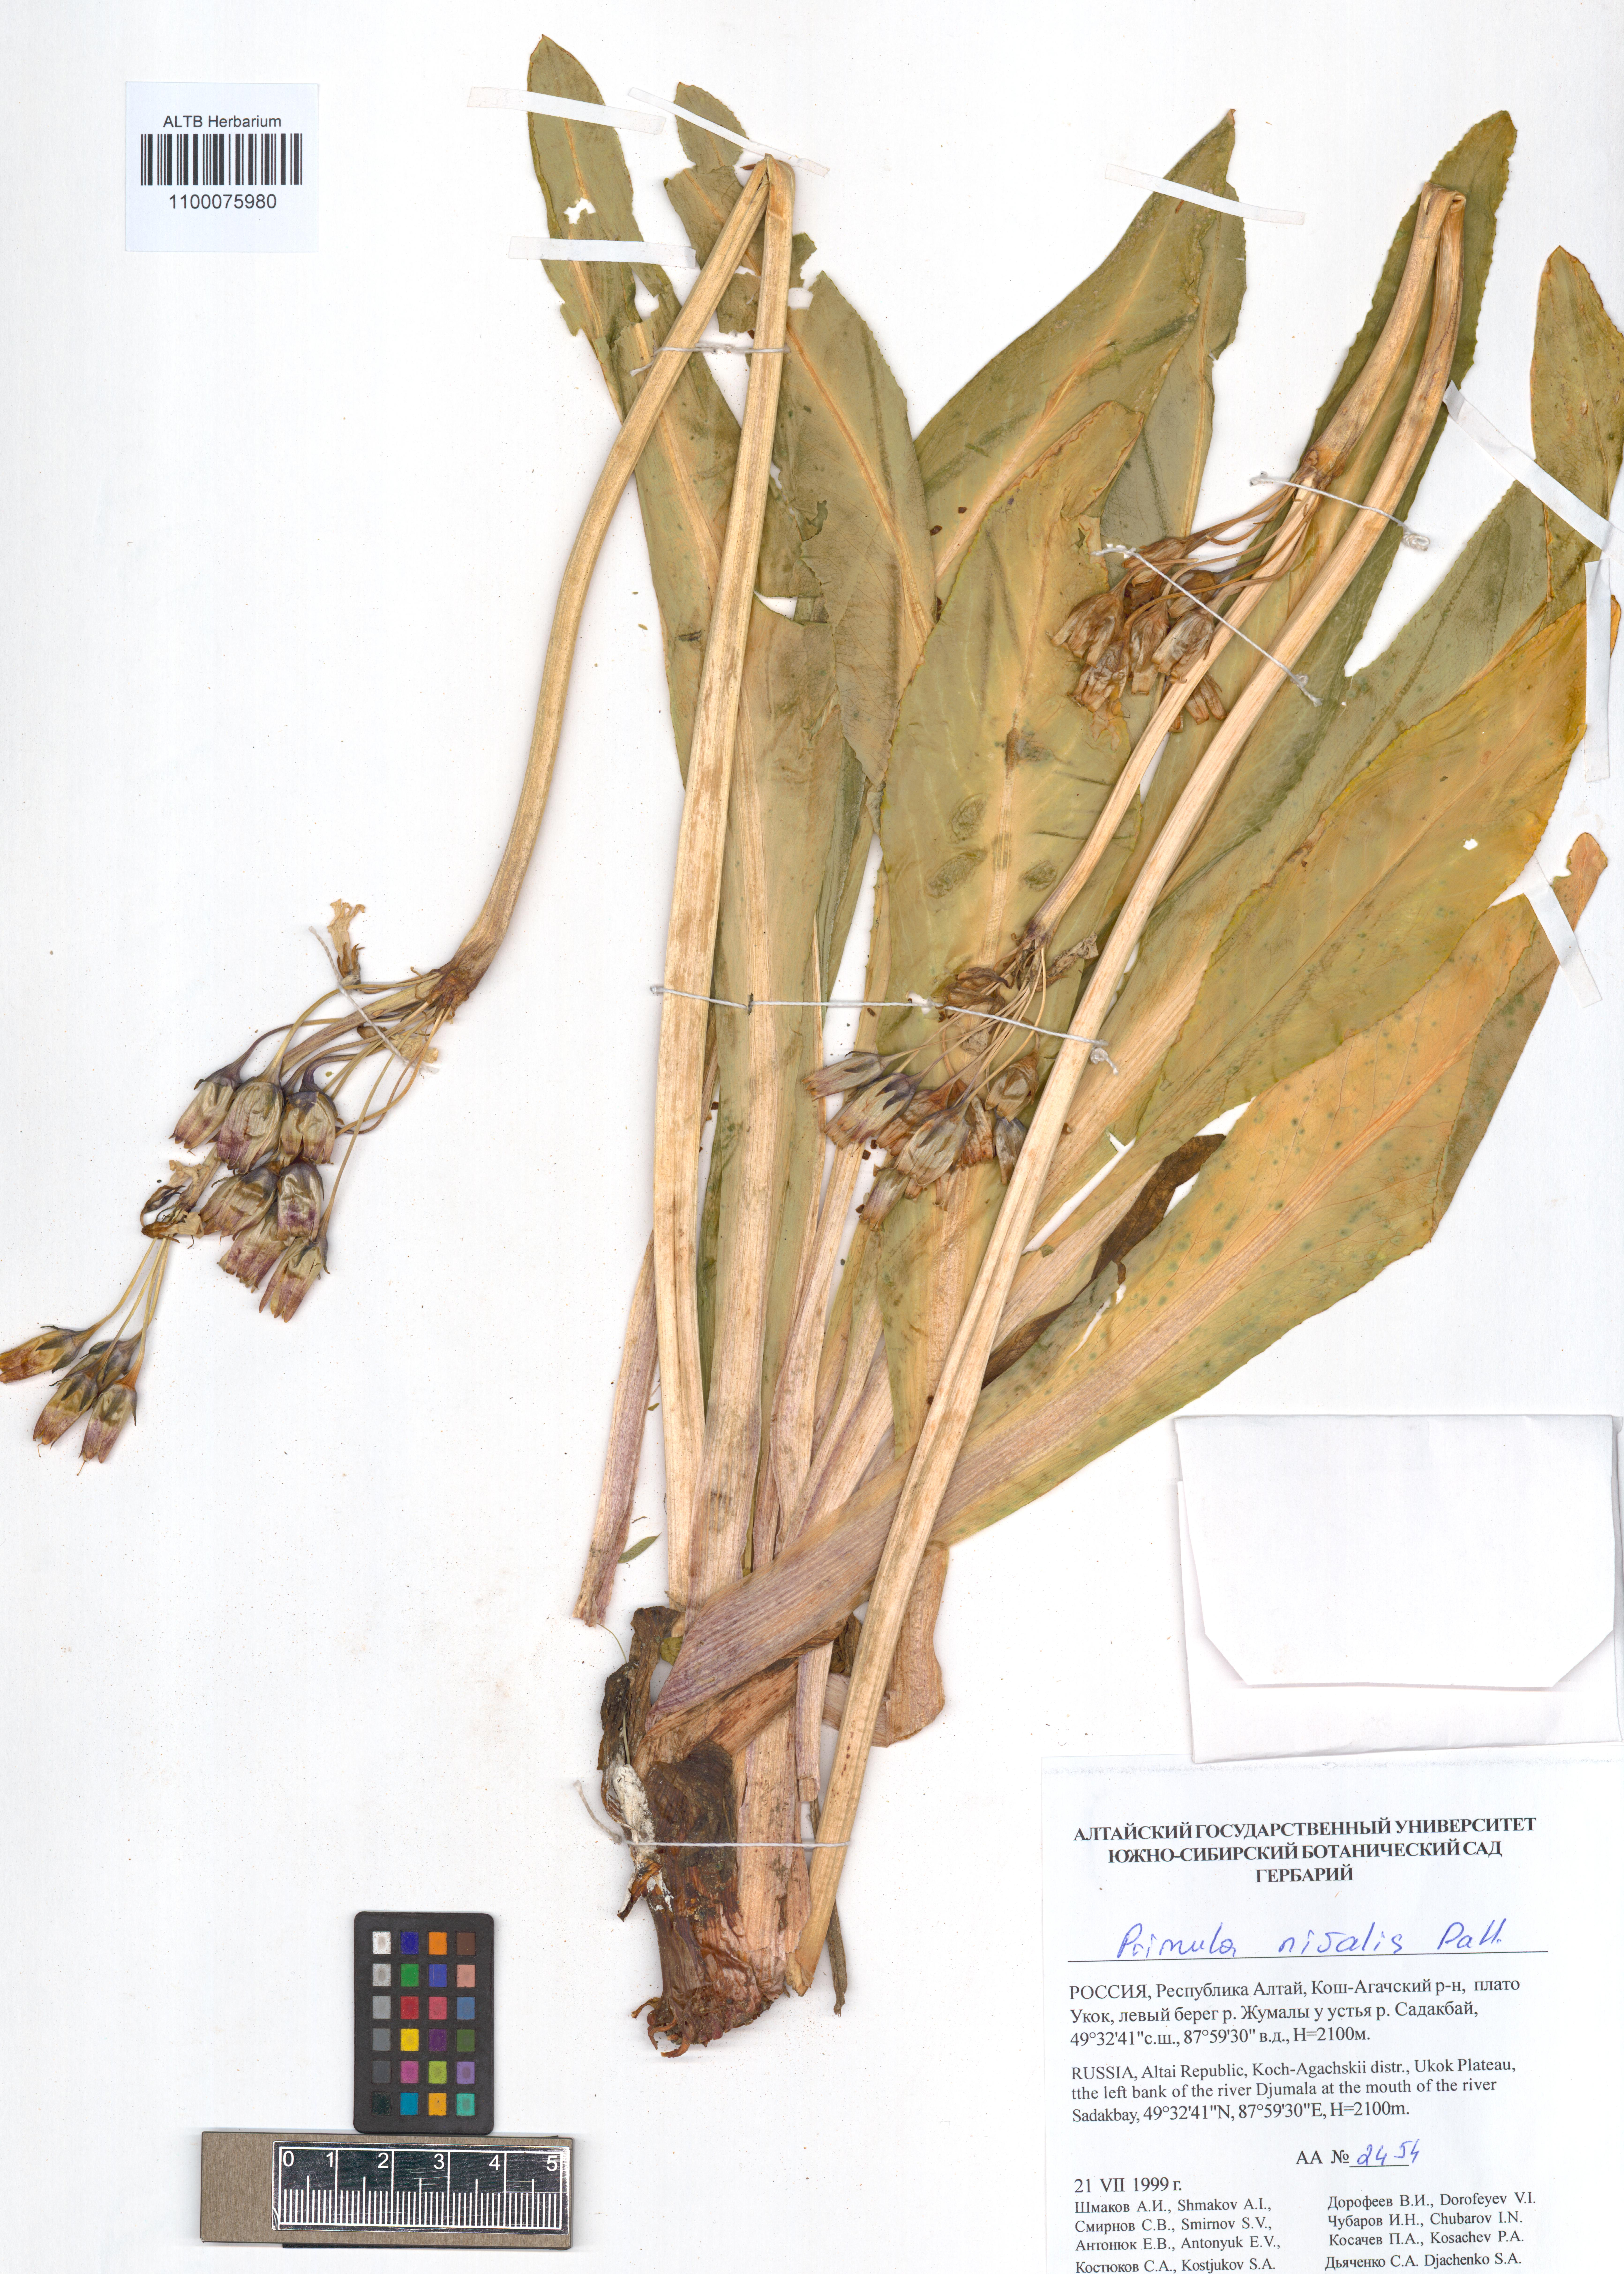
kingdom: Plantae
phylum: Tracheophyta
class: Magnoliopsida
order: Ericales
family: Primulaceae
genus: Primula
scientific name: Primula nivalis
